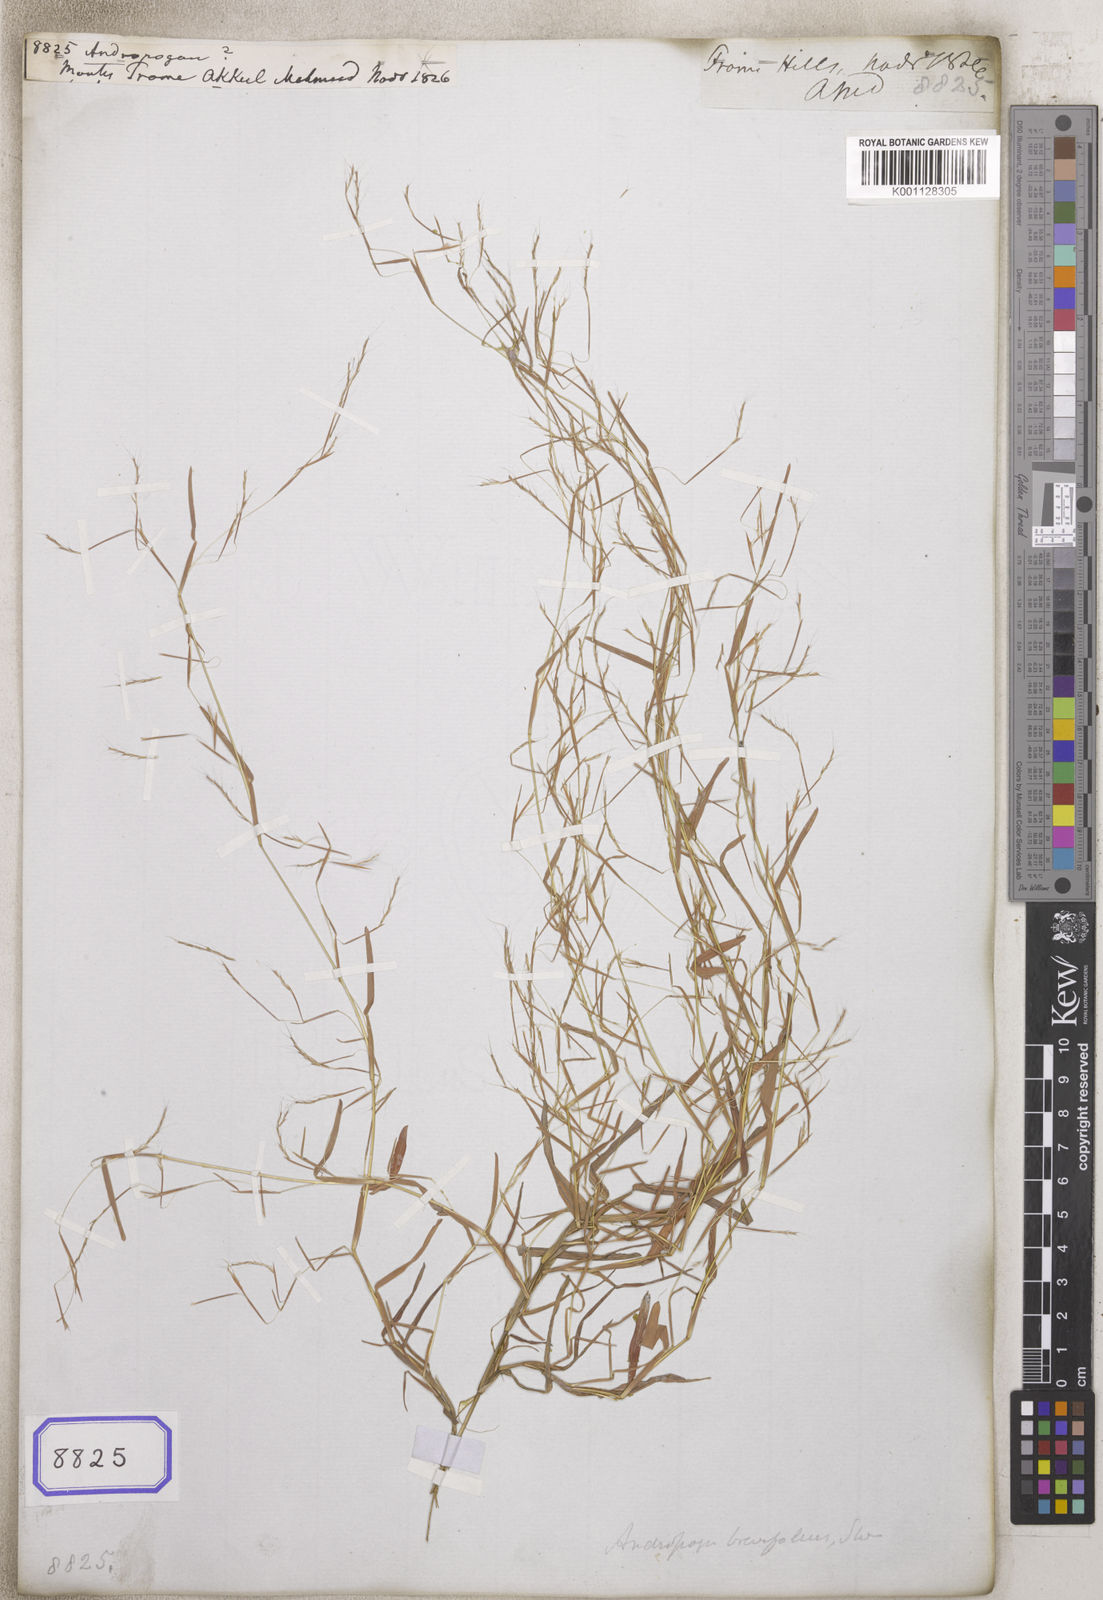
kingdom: Plantae
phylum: Tracheophyta
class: Liliopsida
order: Poales
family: Poaceae
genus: Andropogon
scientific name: Andropogon
